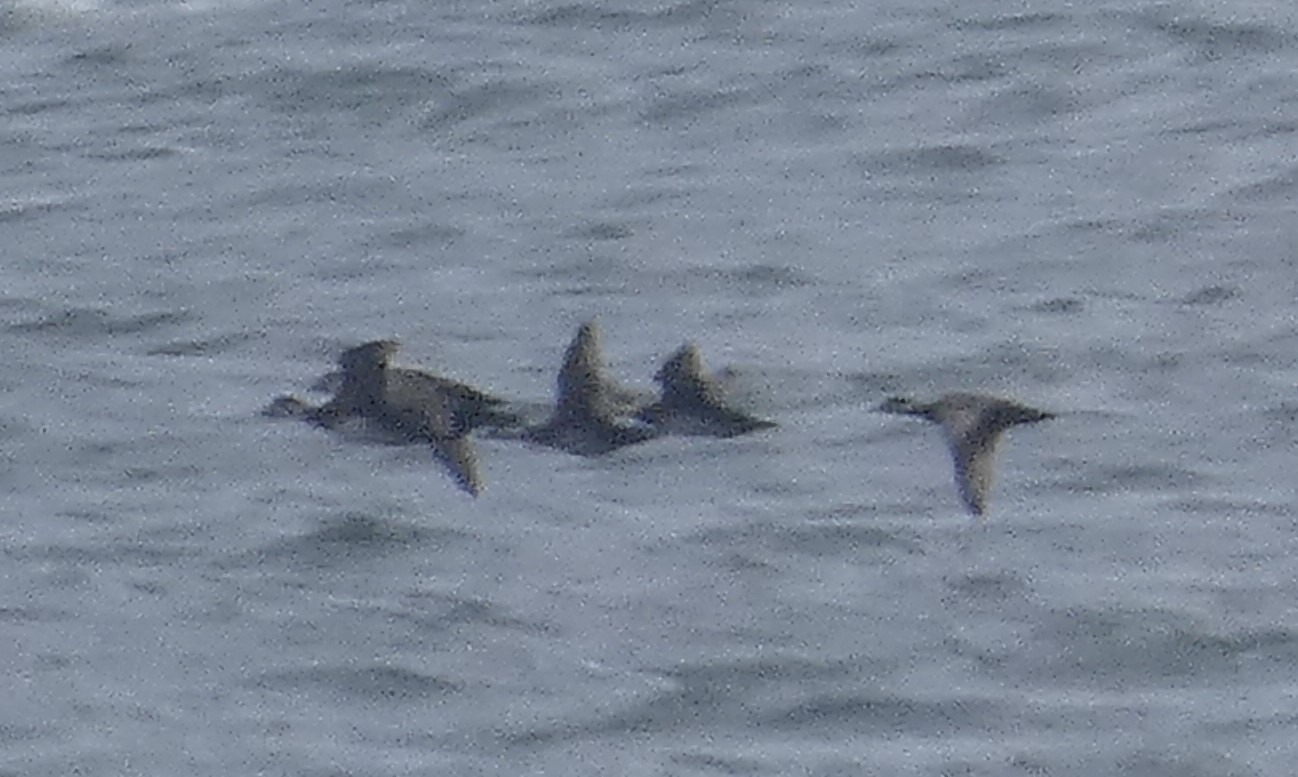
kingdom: Animalia
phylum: Chordata
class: Aves
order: Anseriformes
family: Anatidae
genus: Melanitta
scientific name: Melanitta nigra
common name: Sortand
